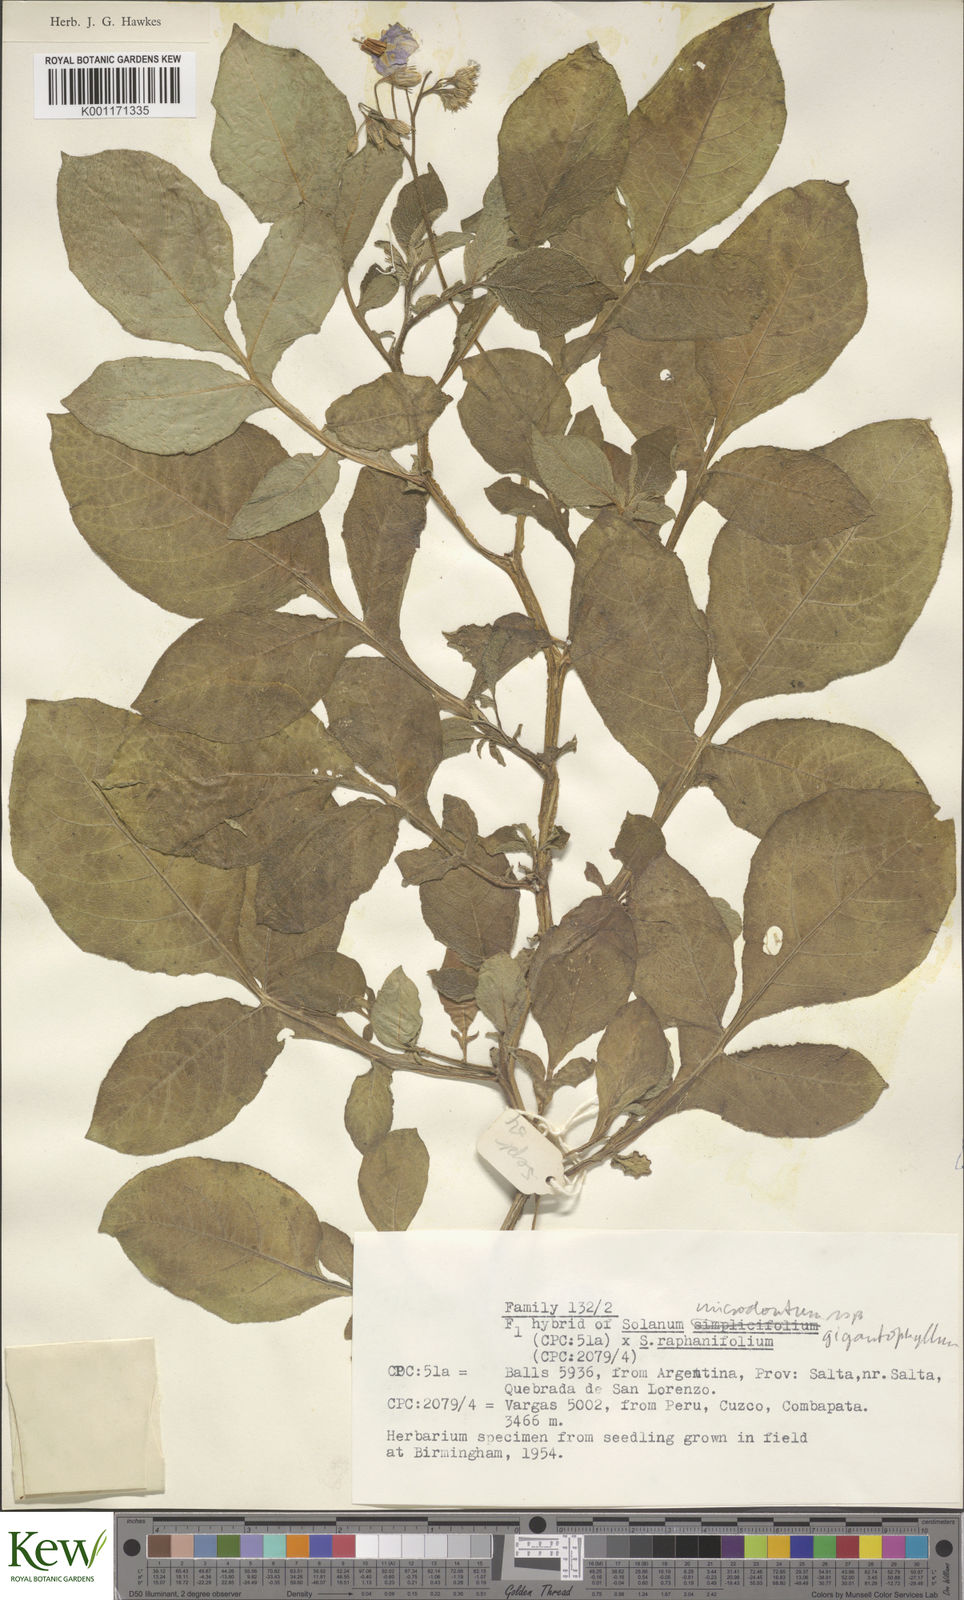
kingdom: Plantae
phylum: Tracheophyta
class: Magnoliopsida
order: Solanales
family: Solanaceae
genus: Solanum
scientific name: Solanum microdontum
